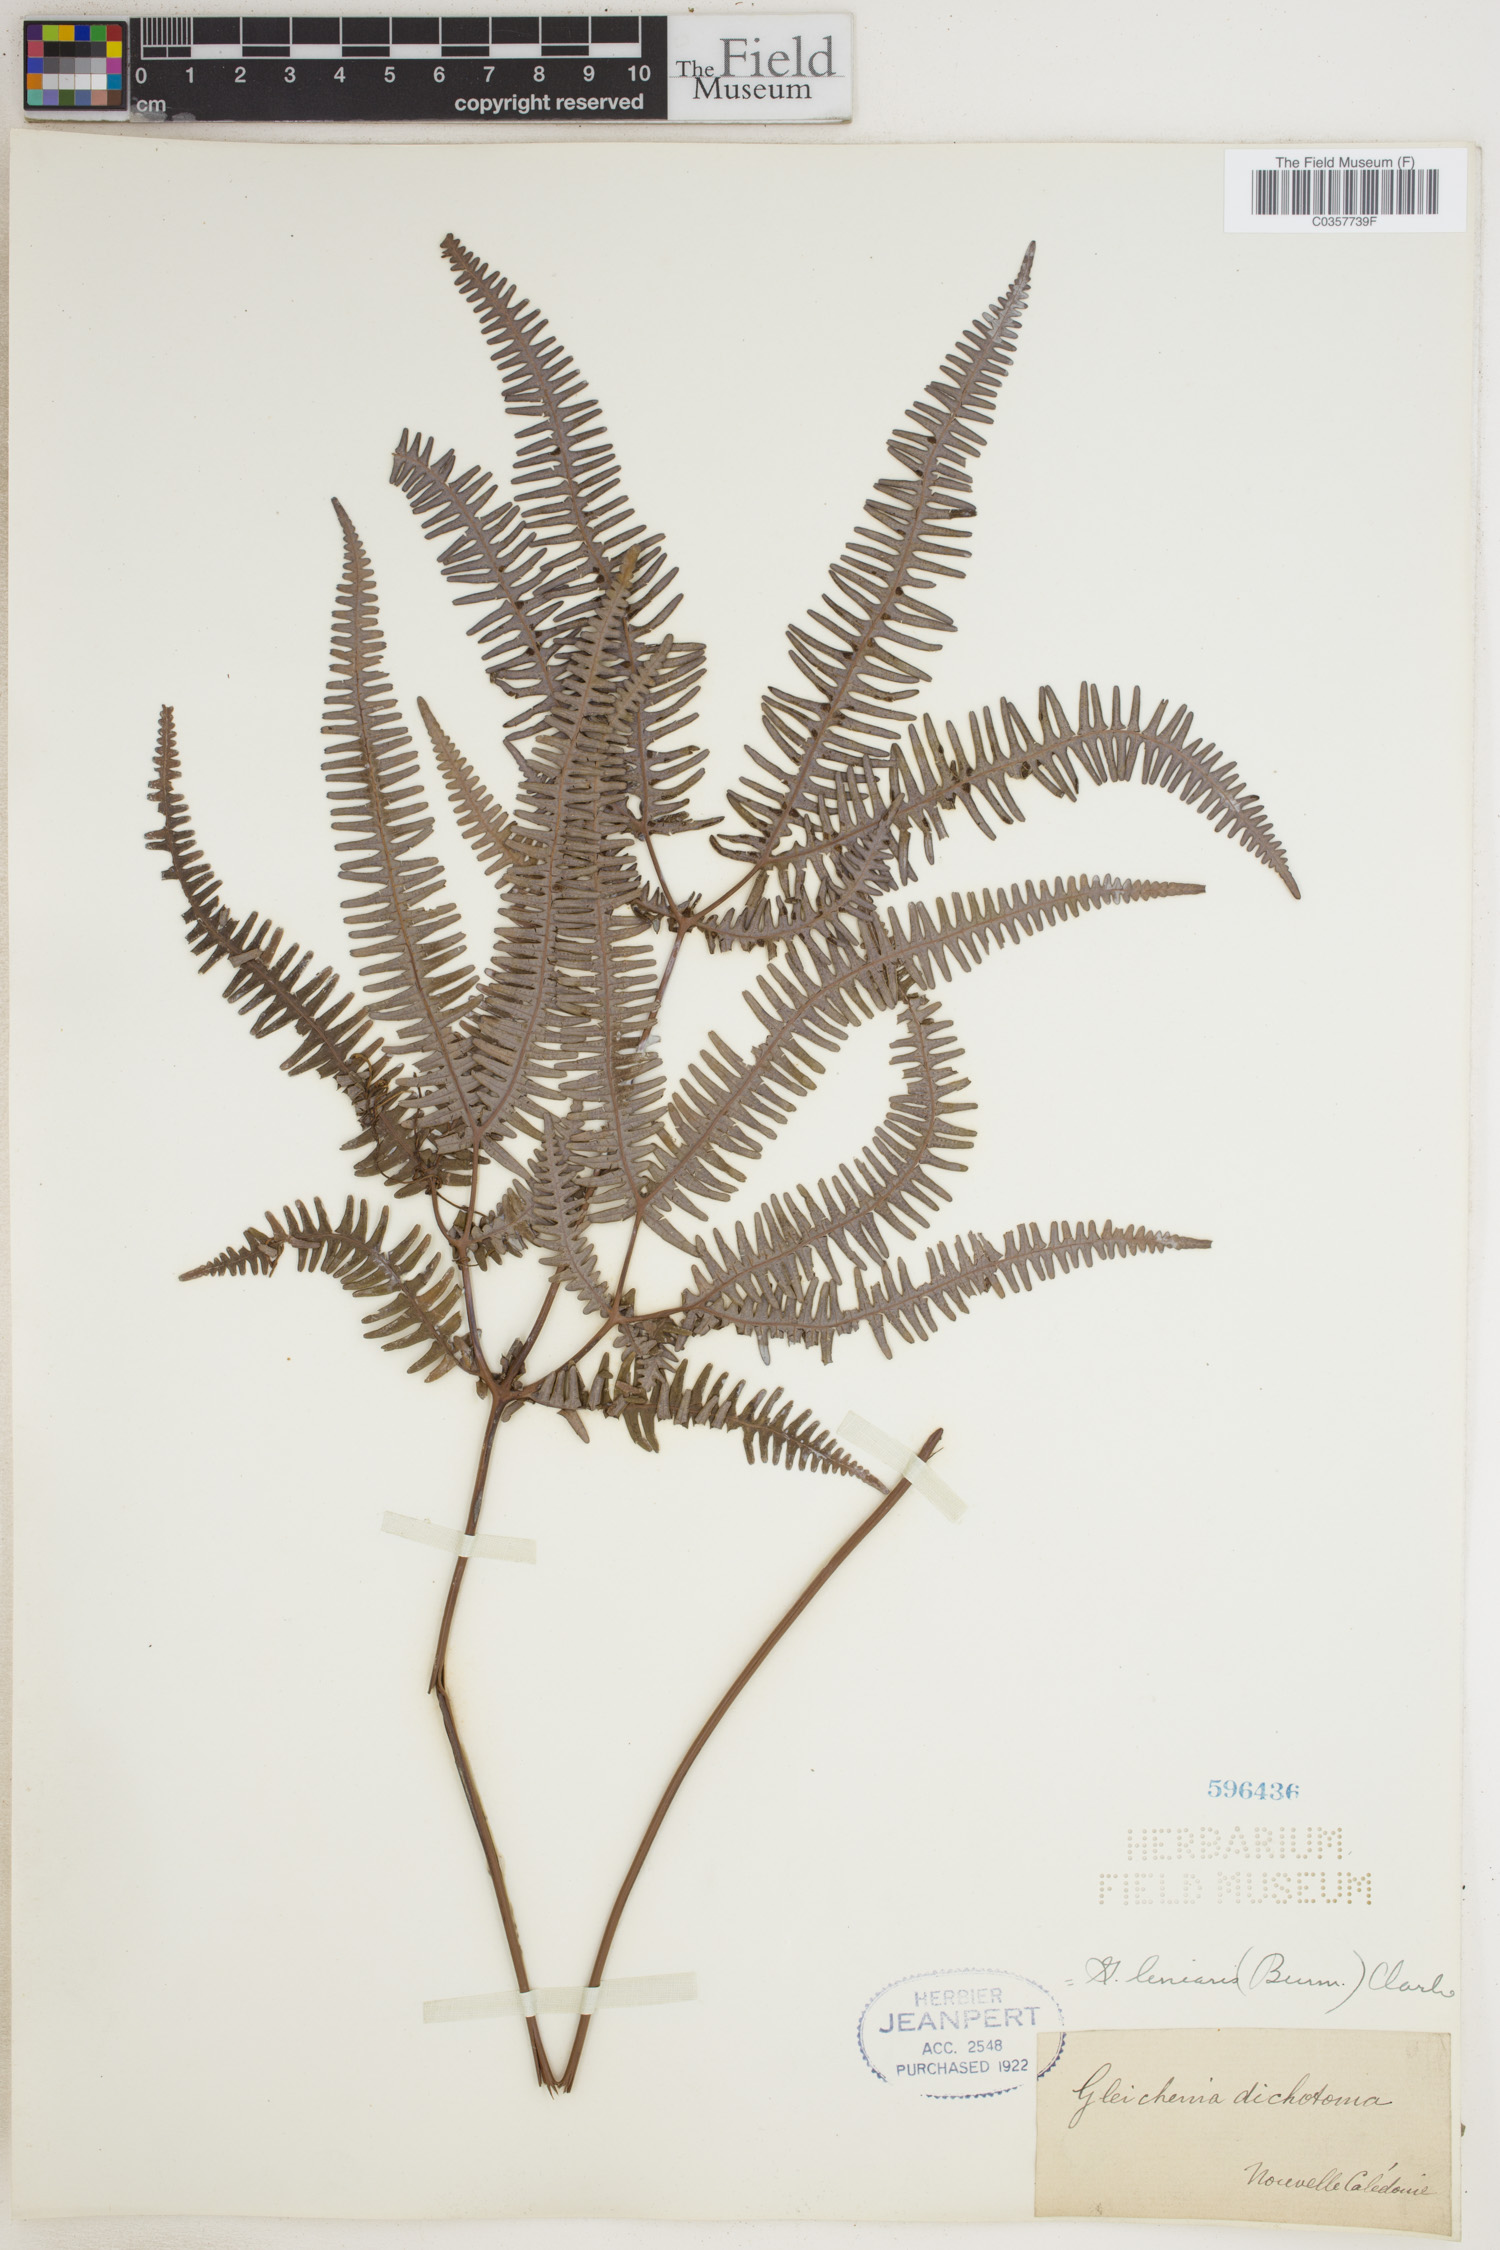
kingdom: Plantae
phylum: Tracheophyta
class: Polypodiopsida
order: Gleicheniales
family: Gleicheniaceae
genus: Dicranopteris
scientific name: Dicranopteris linearis
